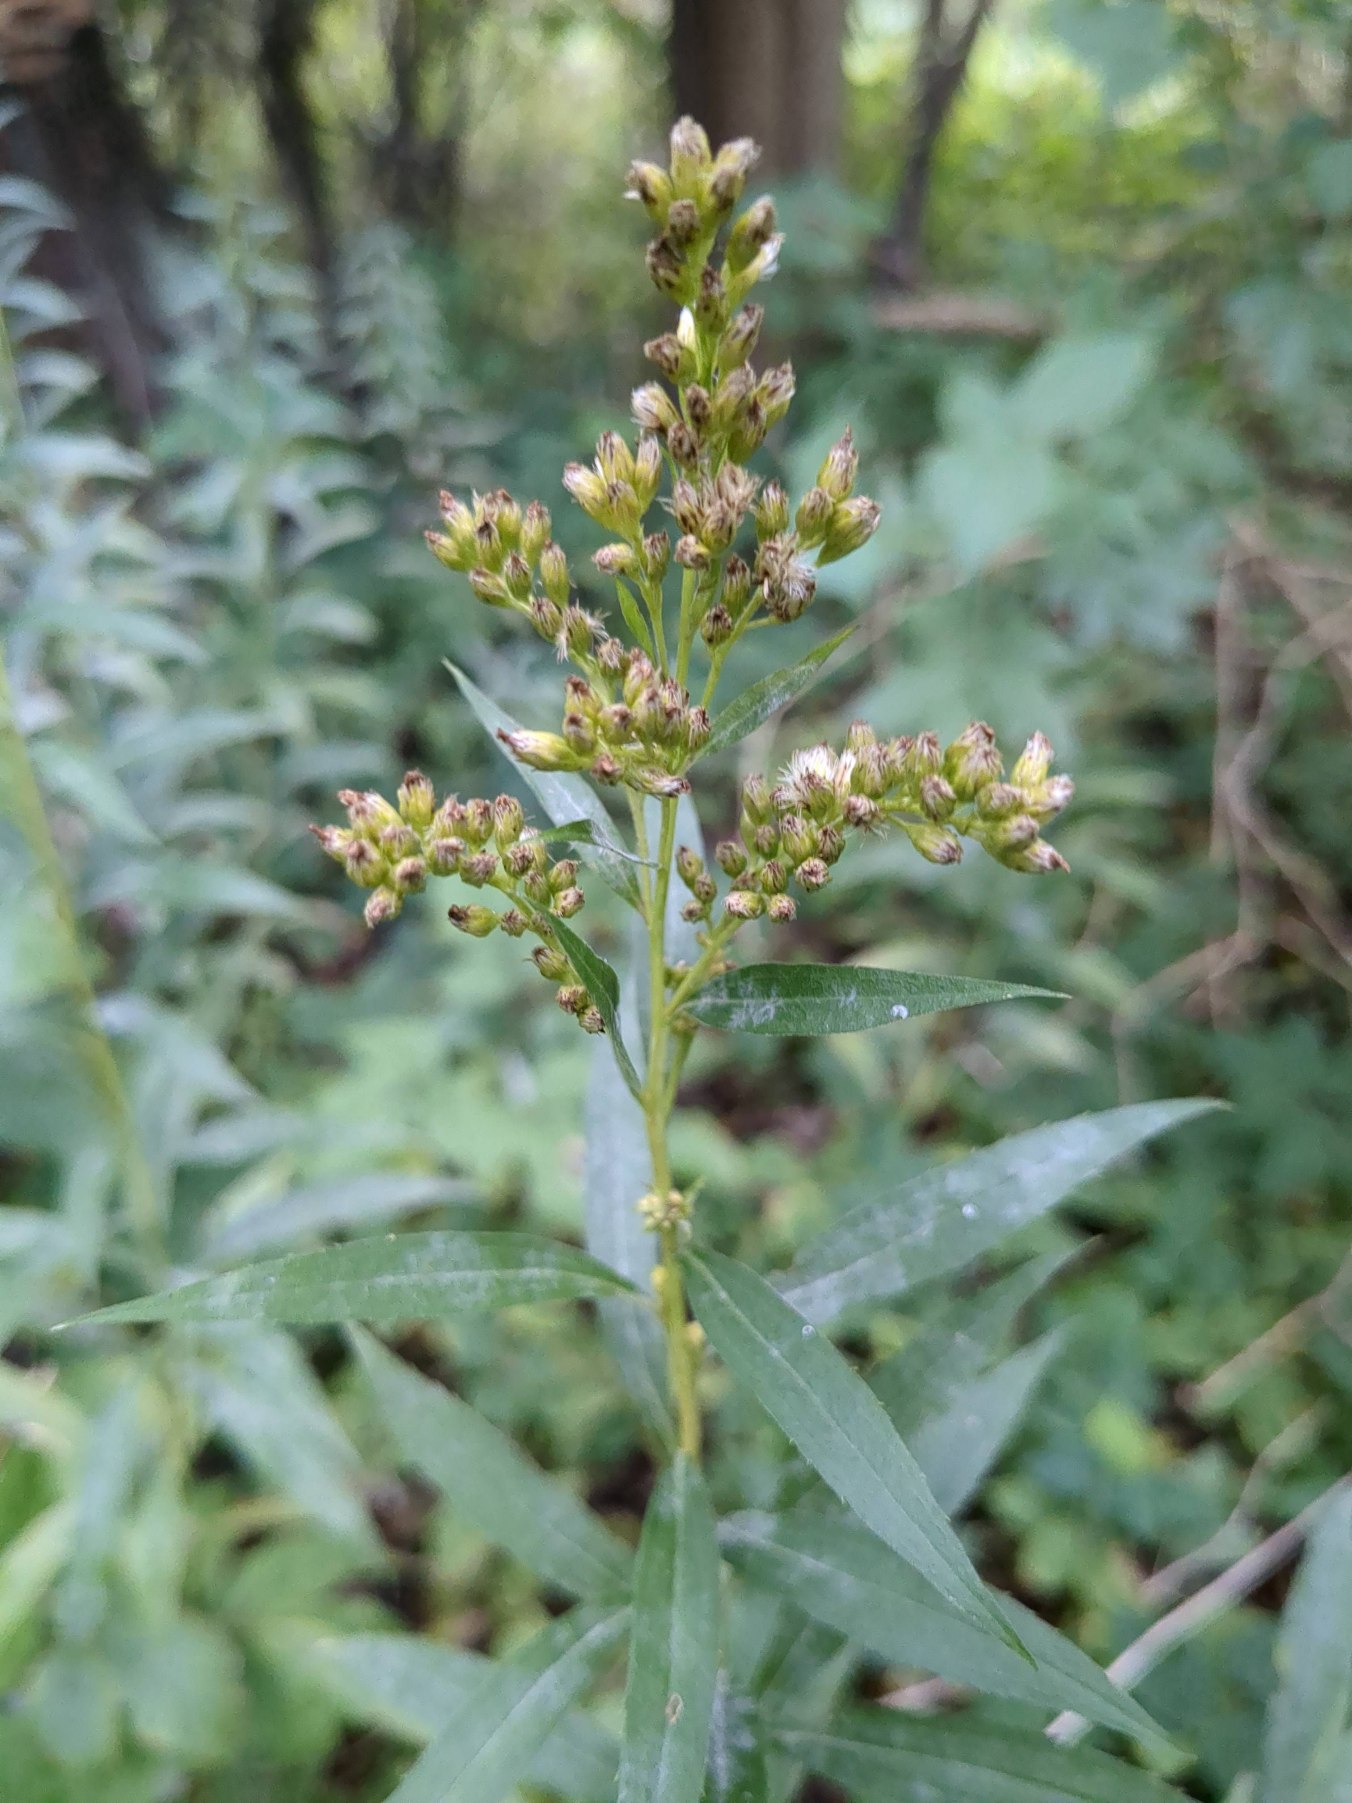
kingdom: Plantae
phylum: Tracheophyta
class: Magnoliopsida
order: Asterales
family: Asteraceae
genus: Solidago
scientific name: Solidago gigantea
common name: Sildig gyldenris
